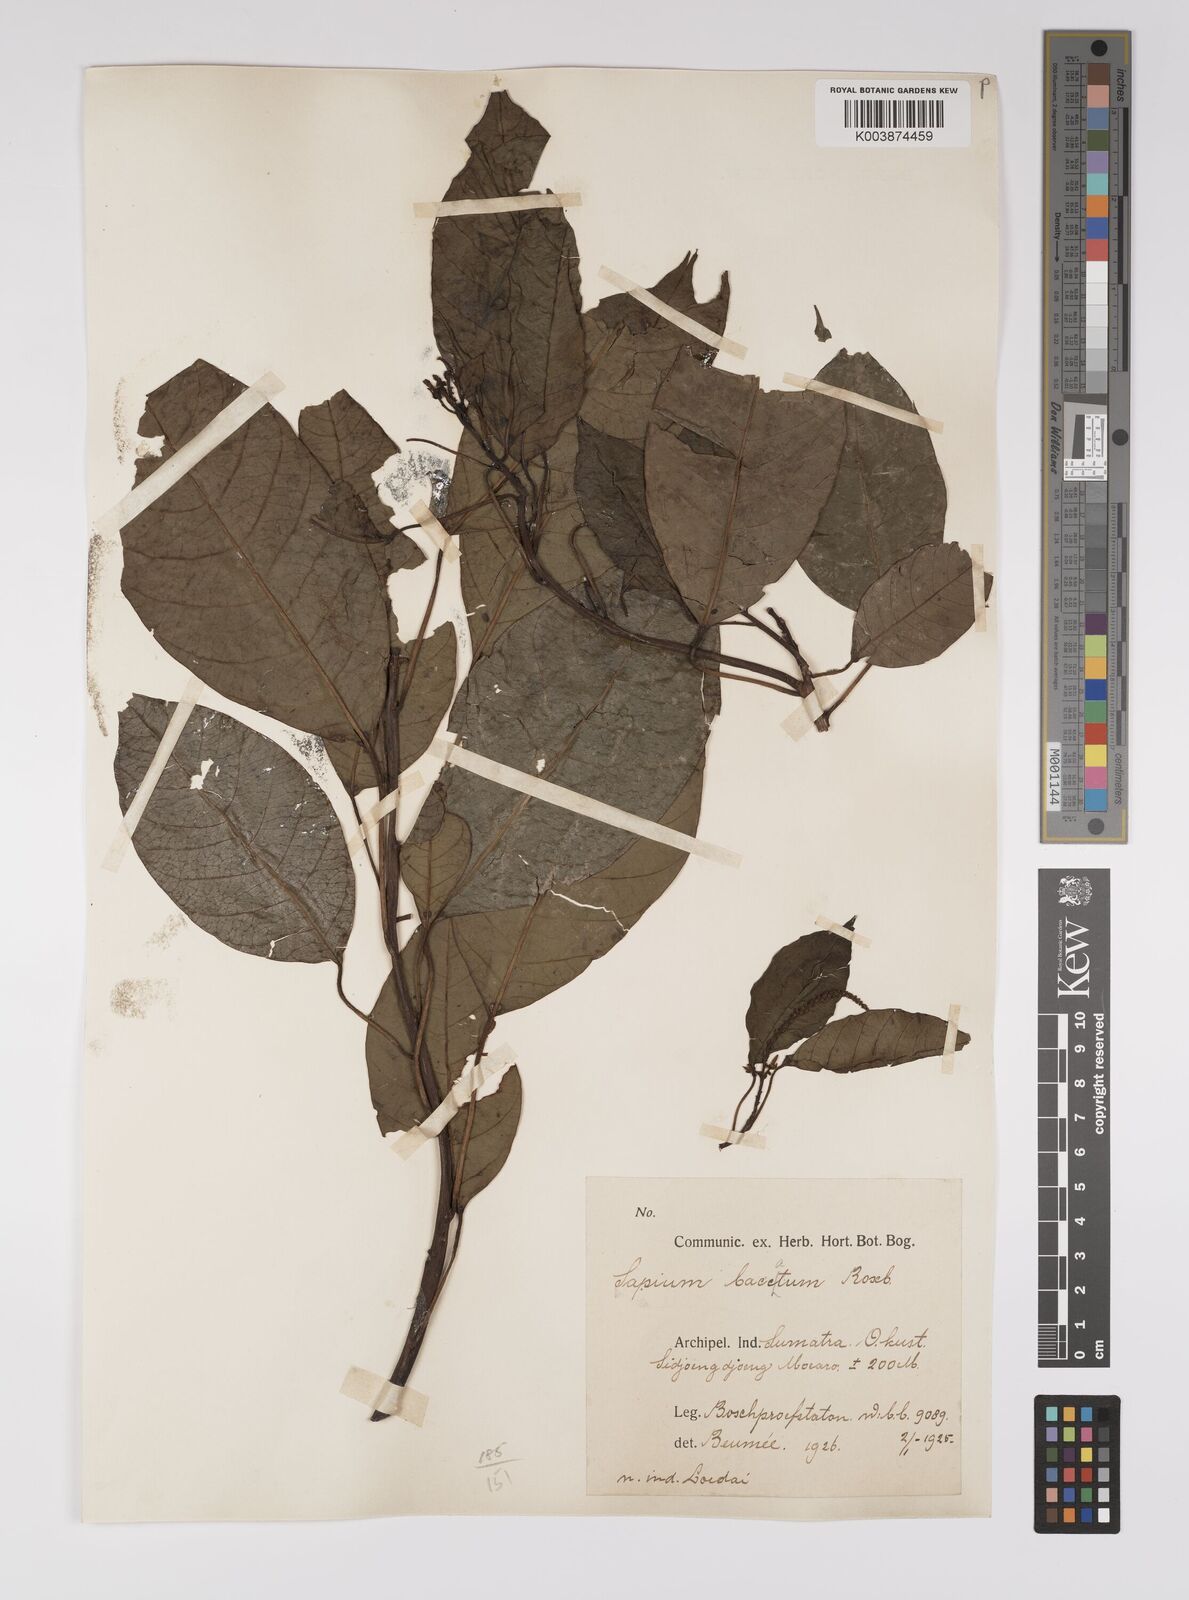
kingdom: Plantae
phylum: Tracheophyta
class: Magnoliopsida
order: Malpighiales
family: Euphorbiaceae
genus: Balakata
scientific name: Balakata baccata
